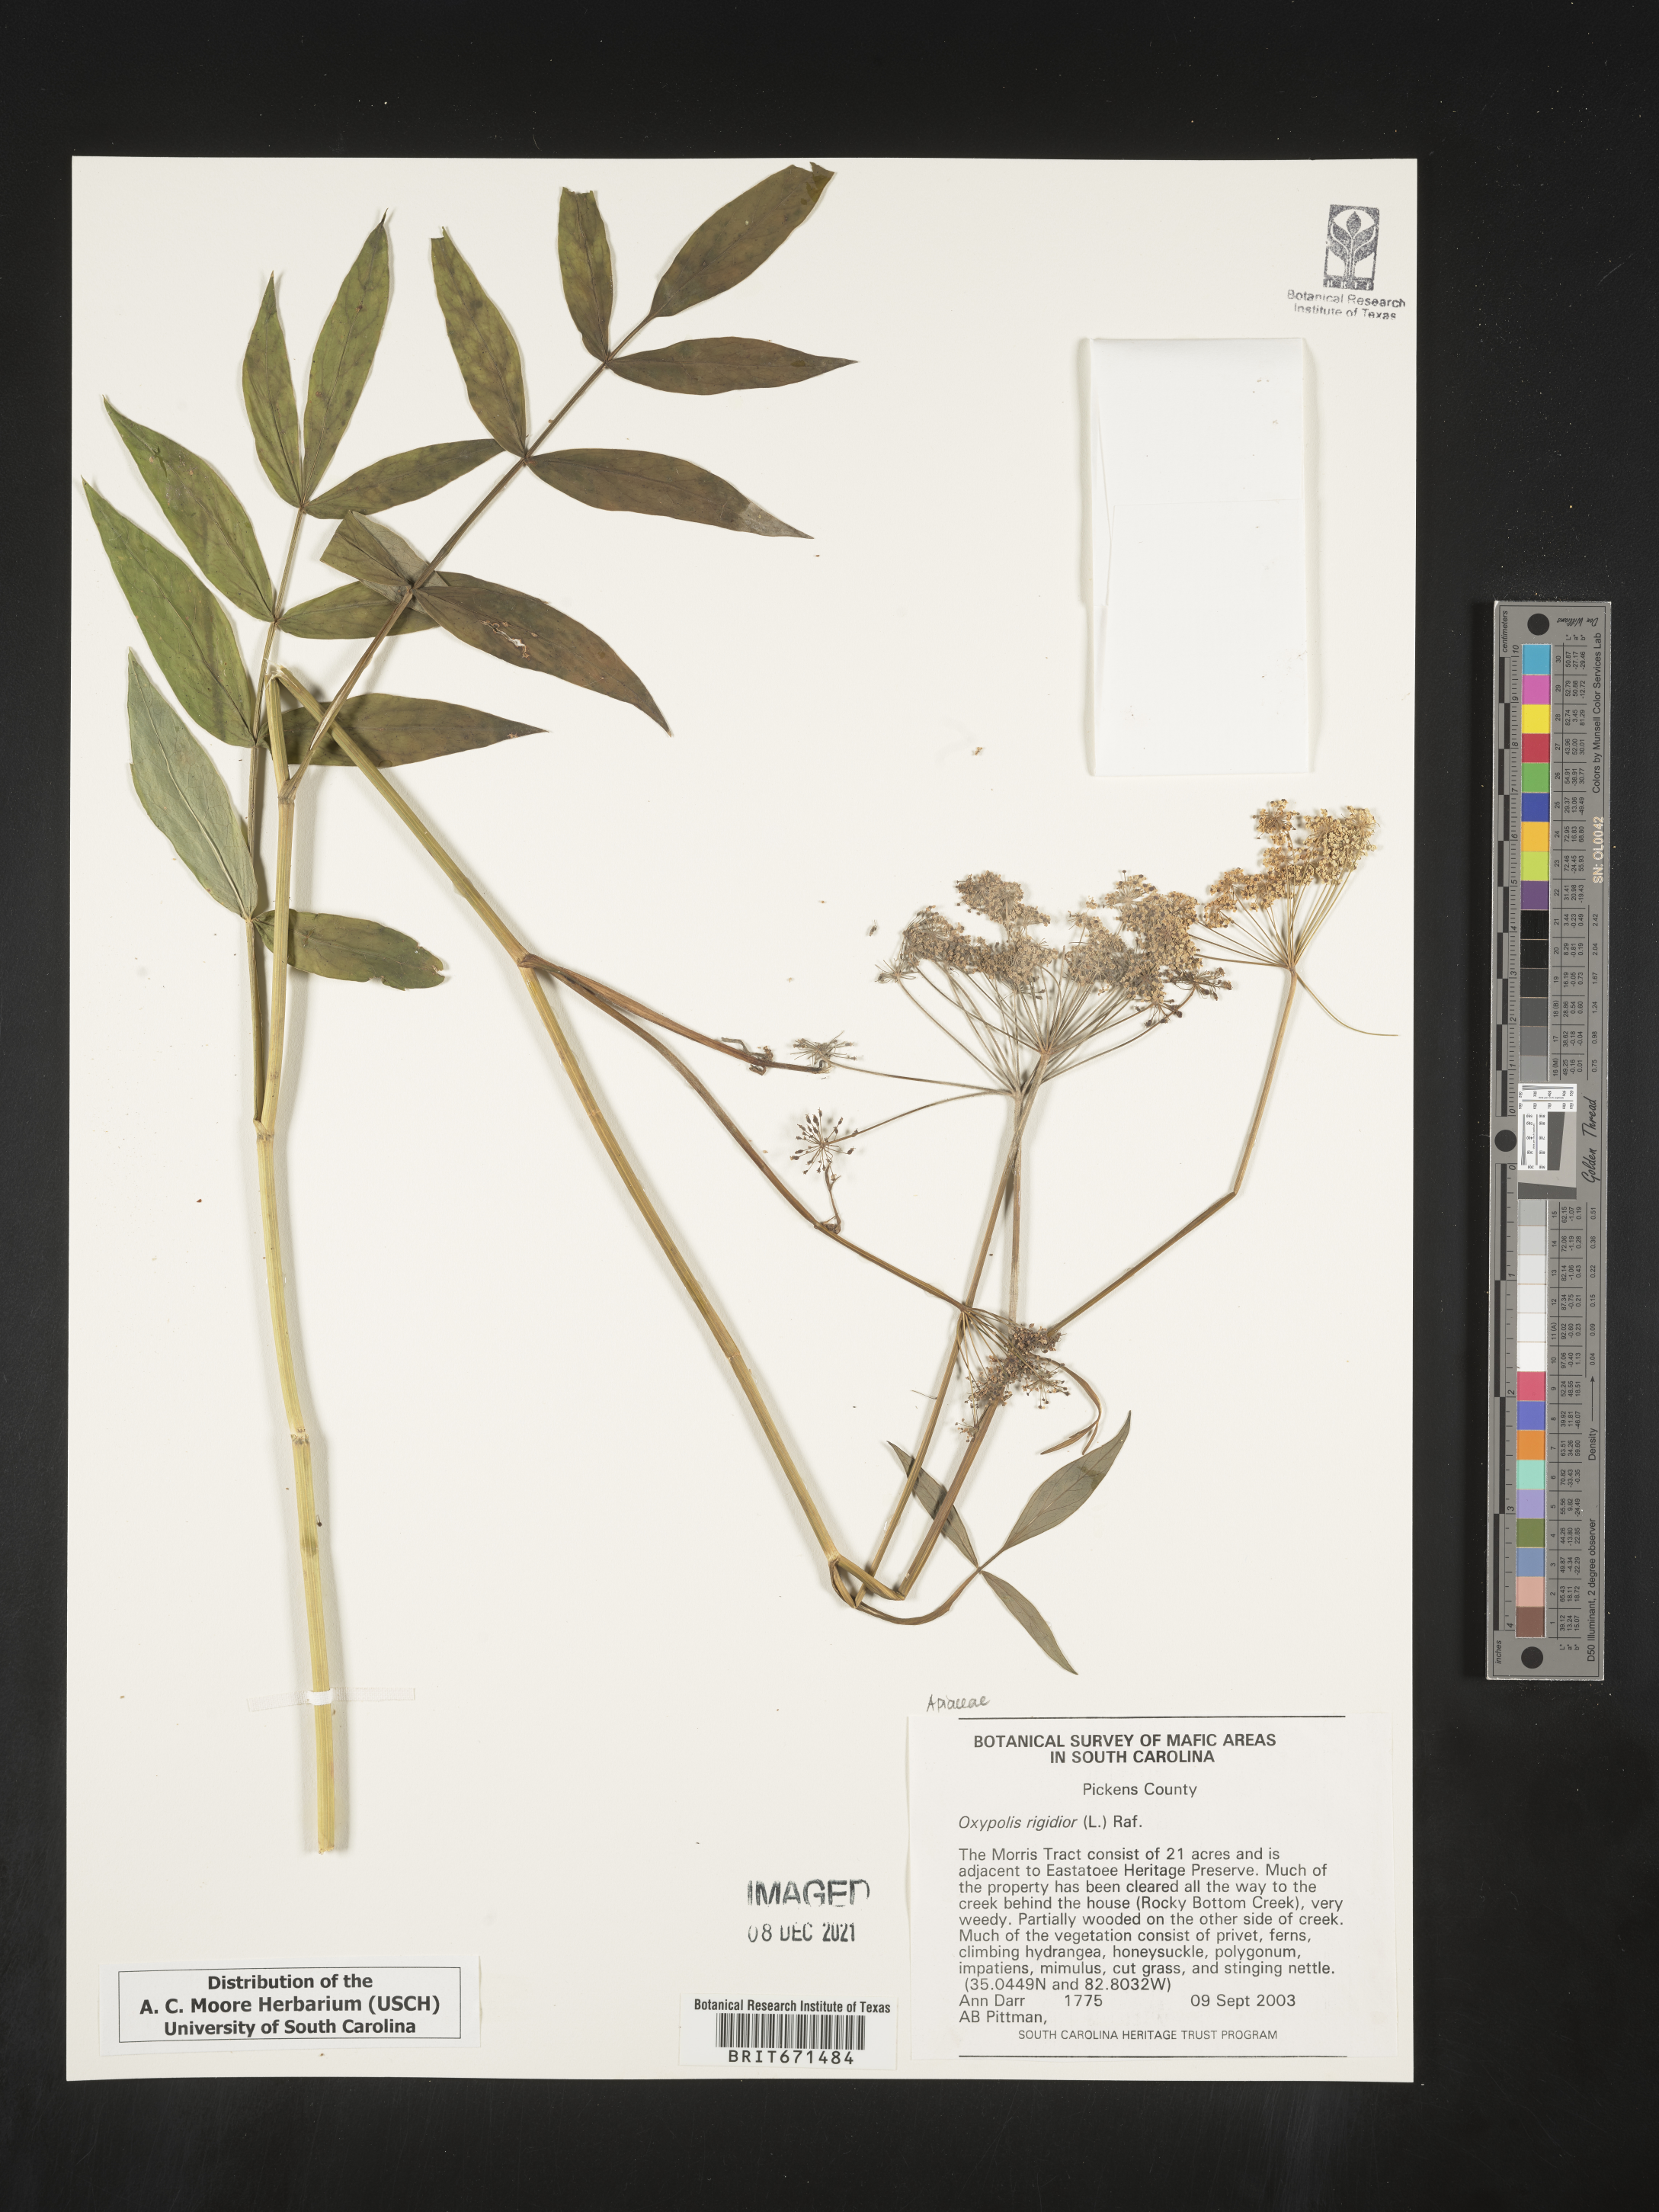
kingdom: Plantae
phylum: Tracheophyta
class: Magnoliopsida
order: Apiales
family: Apiaceae
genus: Oxypolis
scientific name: Oxypolis rigidior
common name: Cowbane
